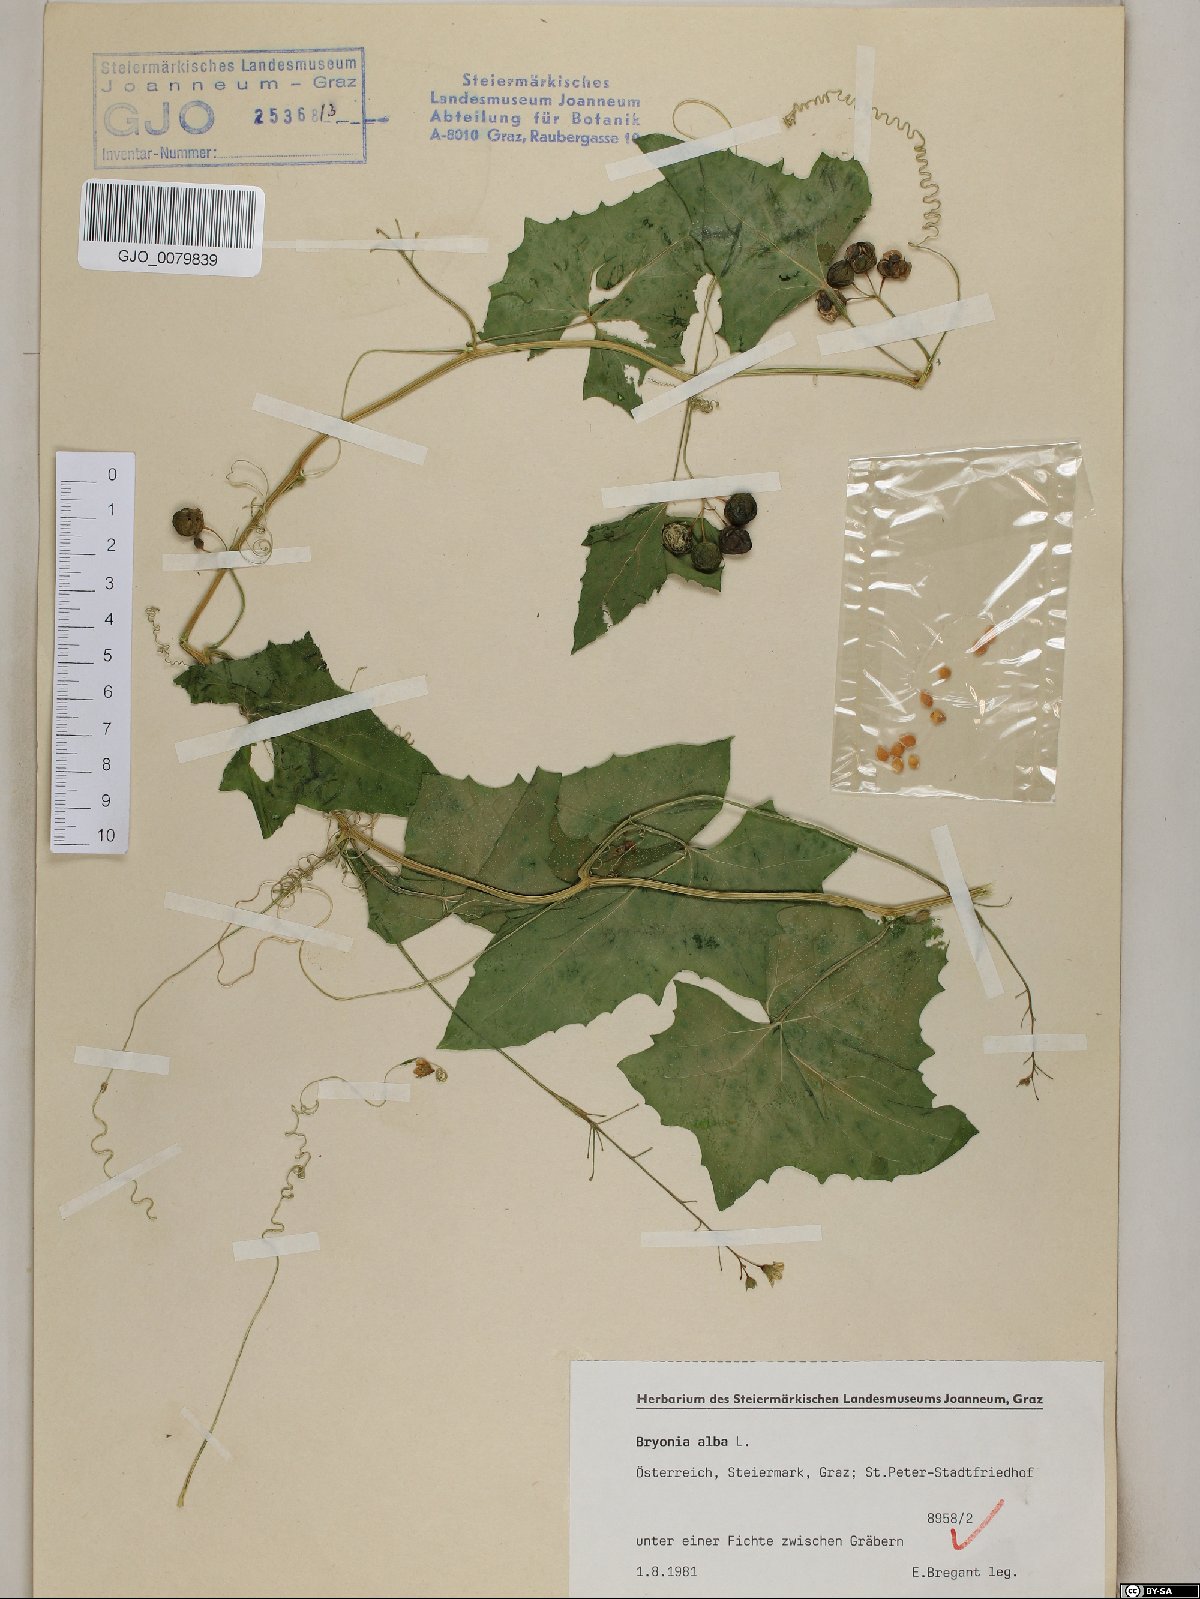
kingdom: Plantae
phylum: Tracheophyta
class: Magnoliopsida
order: Cucurbitales
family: Cucurbitaceae
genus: Bryonia
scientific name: Bryonia alba
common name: White bryony
